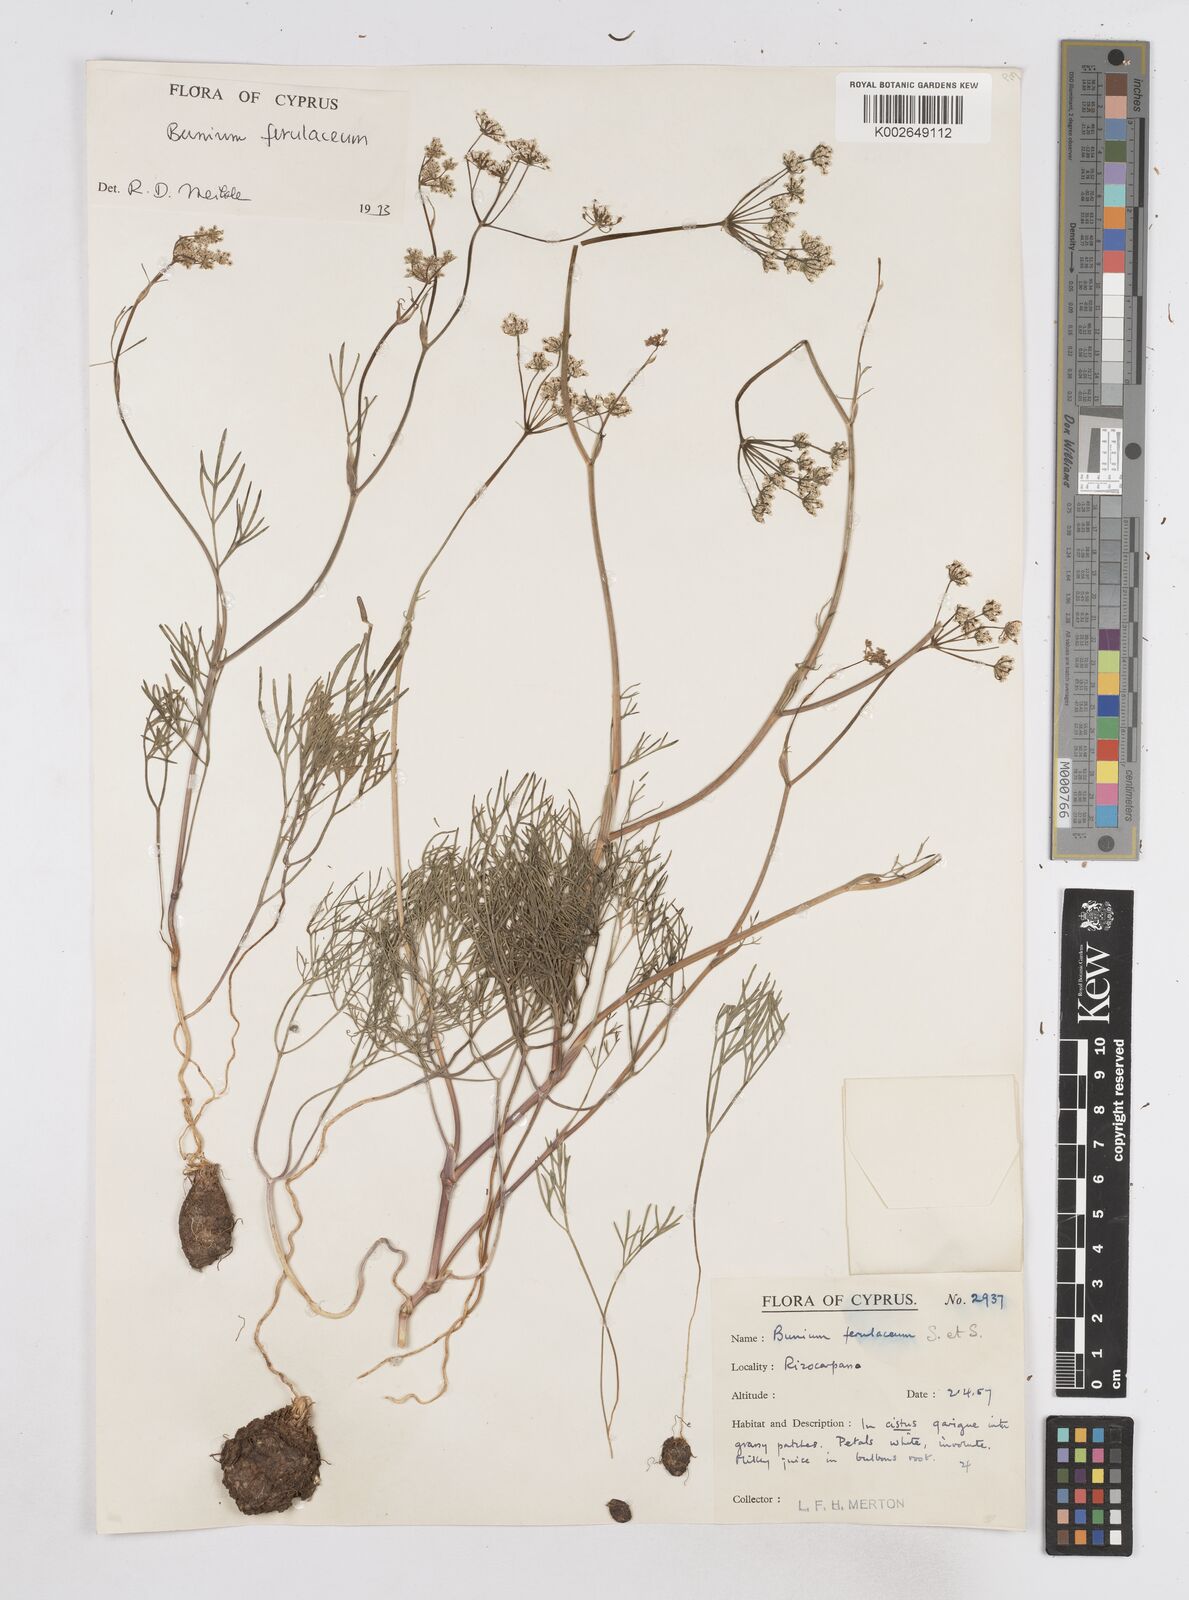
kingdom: Plantae
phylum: Tracheophyta
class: Magnoliopsida
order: Apiales
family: Apiaceae
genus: Bunium
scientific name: Bunium ferulaceum
